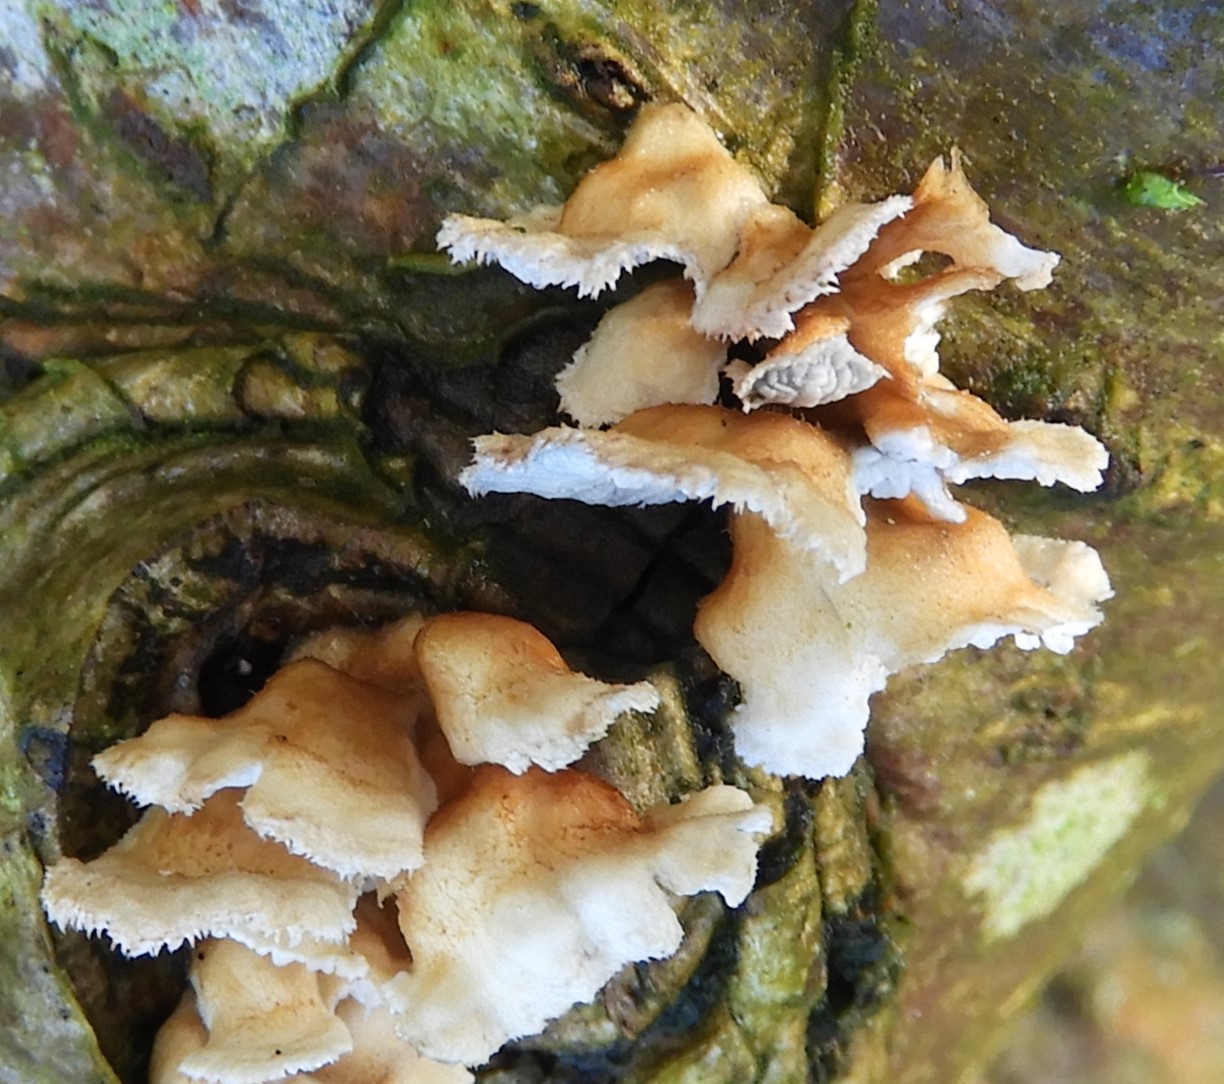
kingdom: Fungi
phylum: Basidiomycota
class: Agaricomycetes
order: Amylocorticiales
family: Amylocorticiaceae
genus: Plicaturopsis
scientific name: Plicaturopsis crispa
